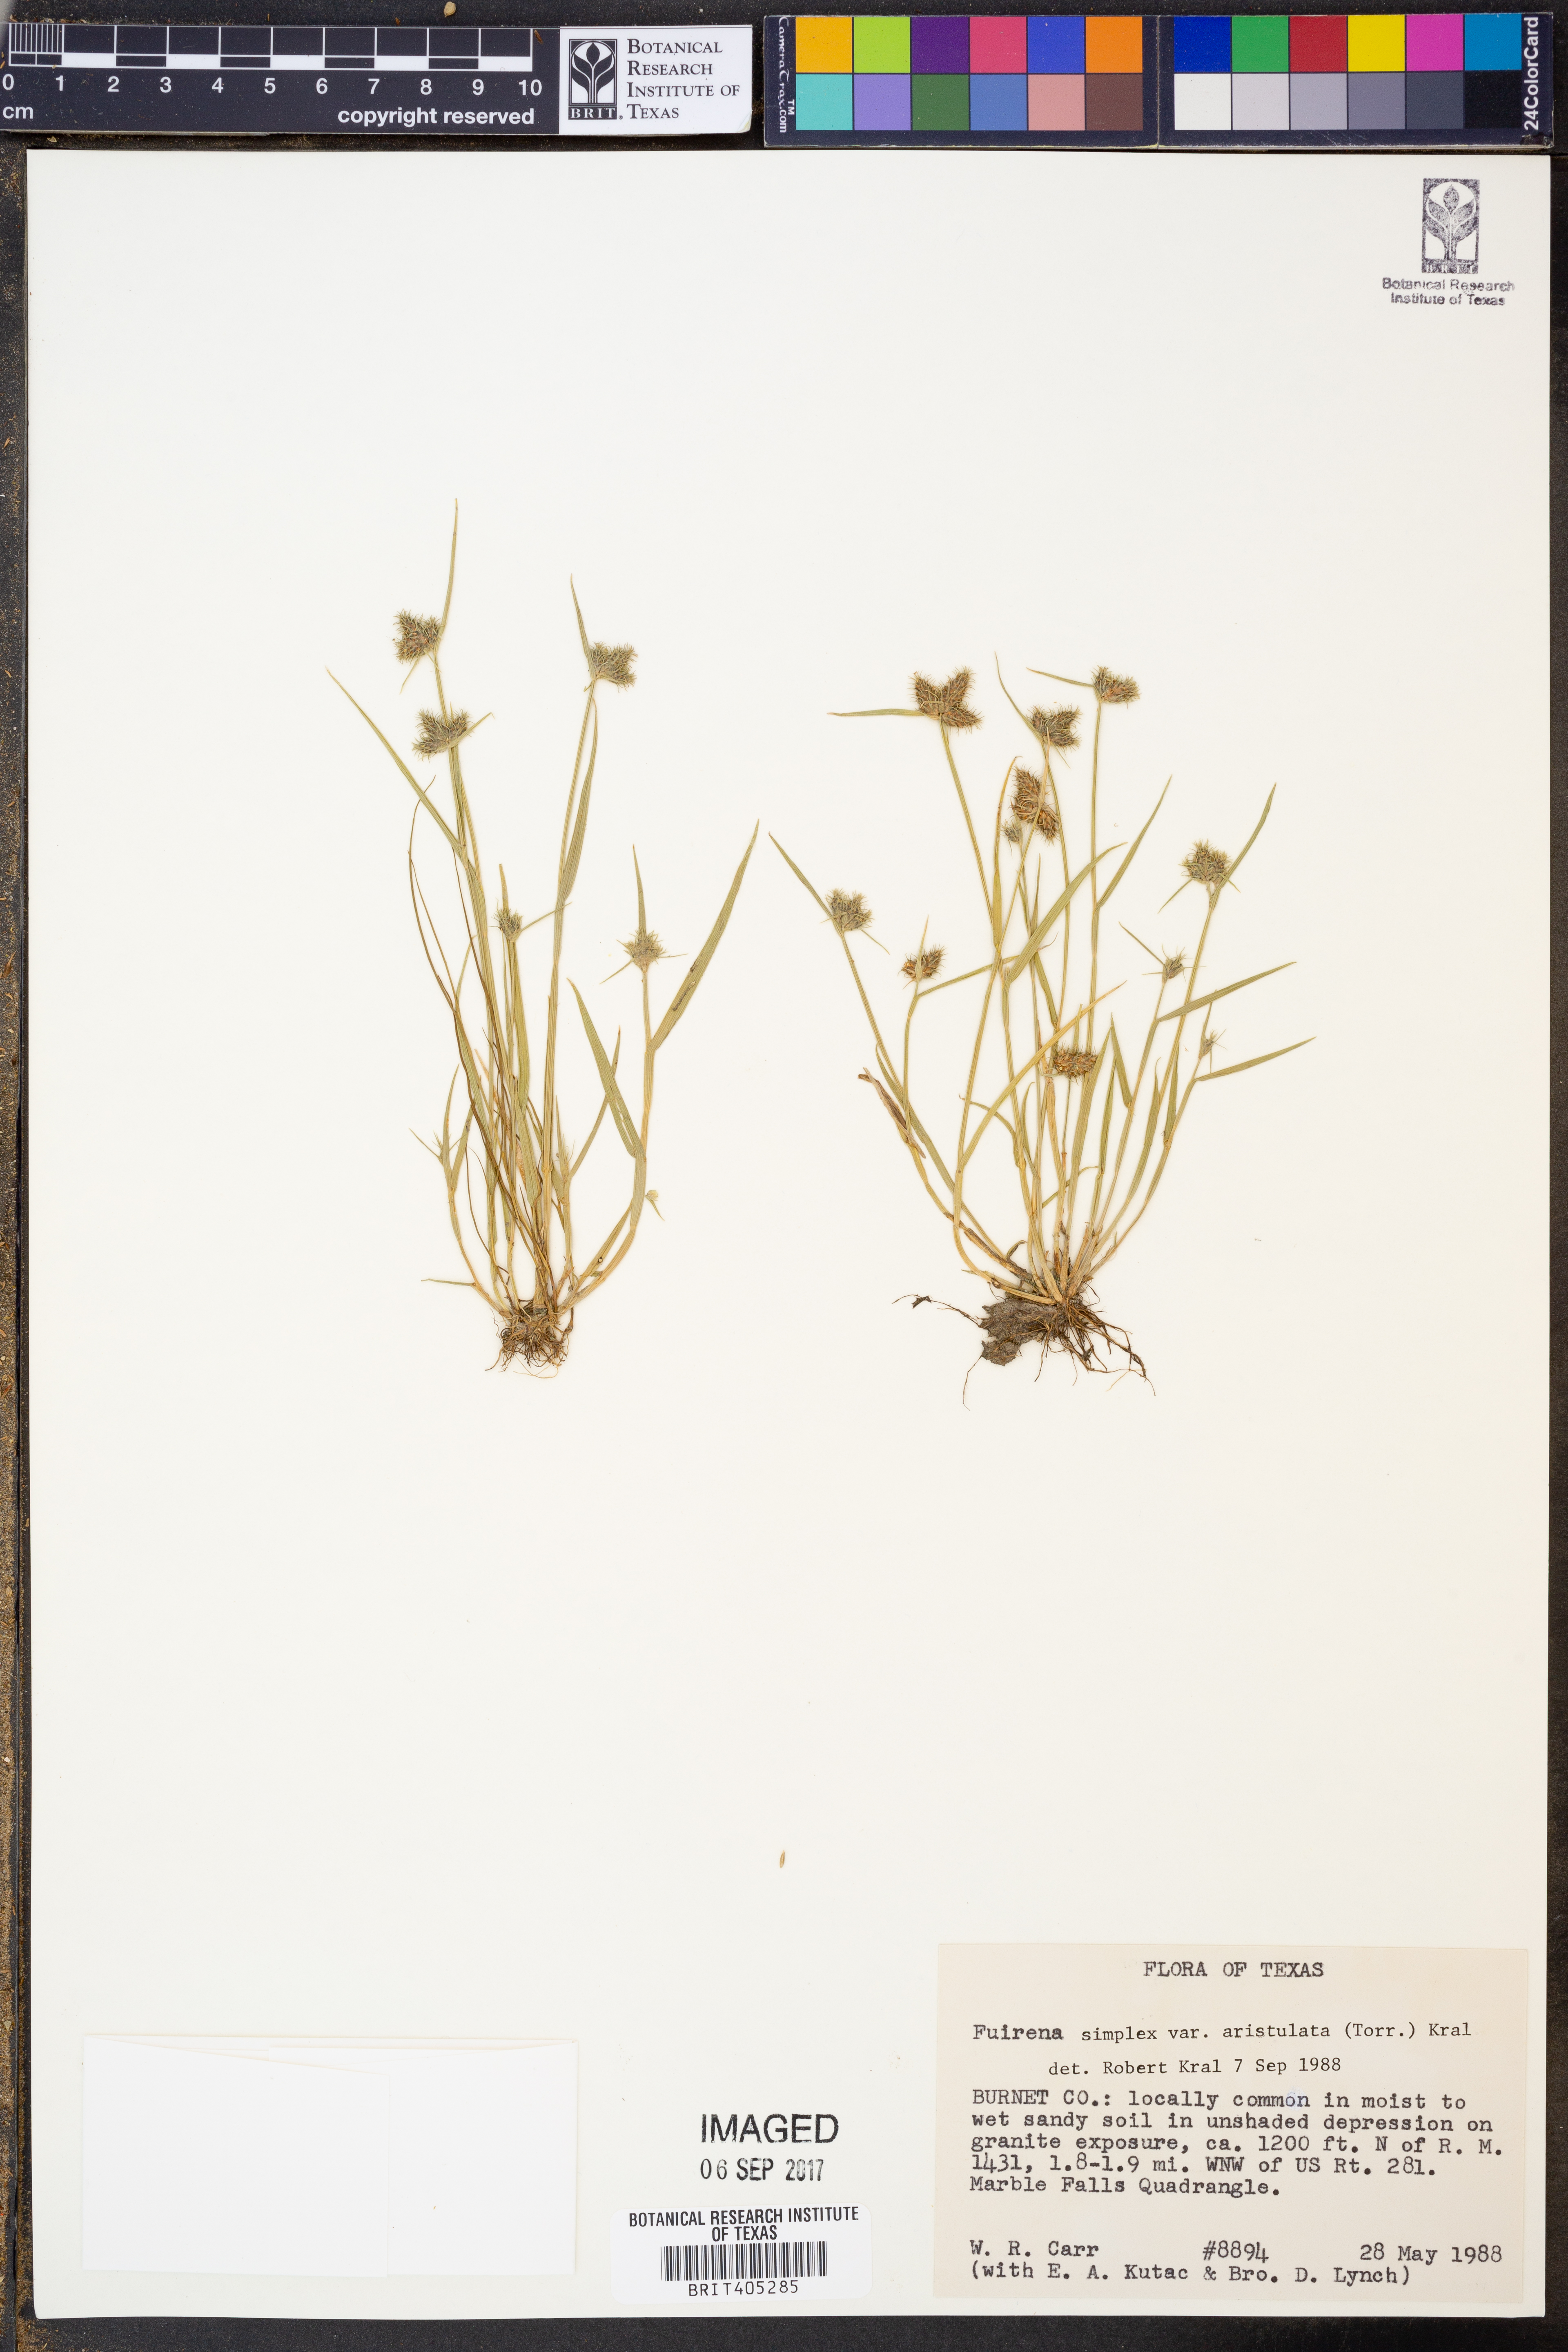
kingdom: Plantae
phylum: Tracheophyta
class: Liliopsida
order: Poales
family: Cyperaceae
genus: Fuirena
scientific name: Fuirena simplex
